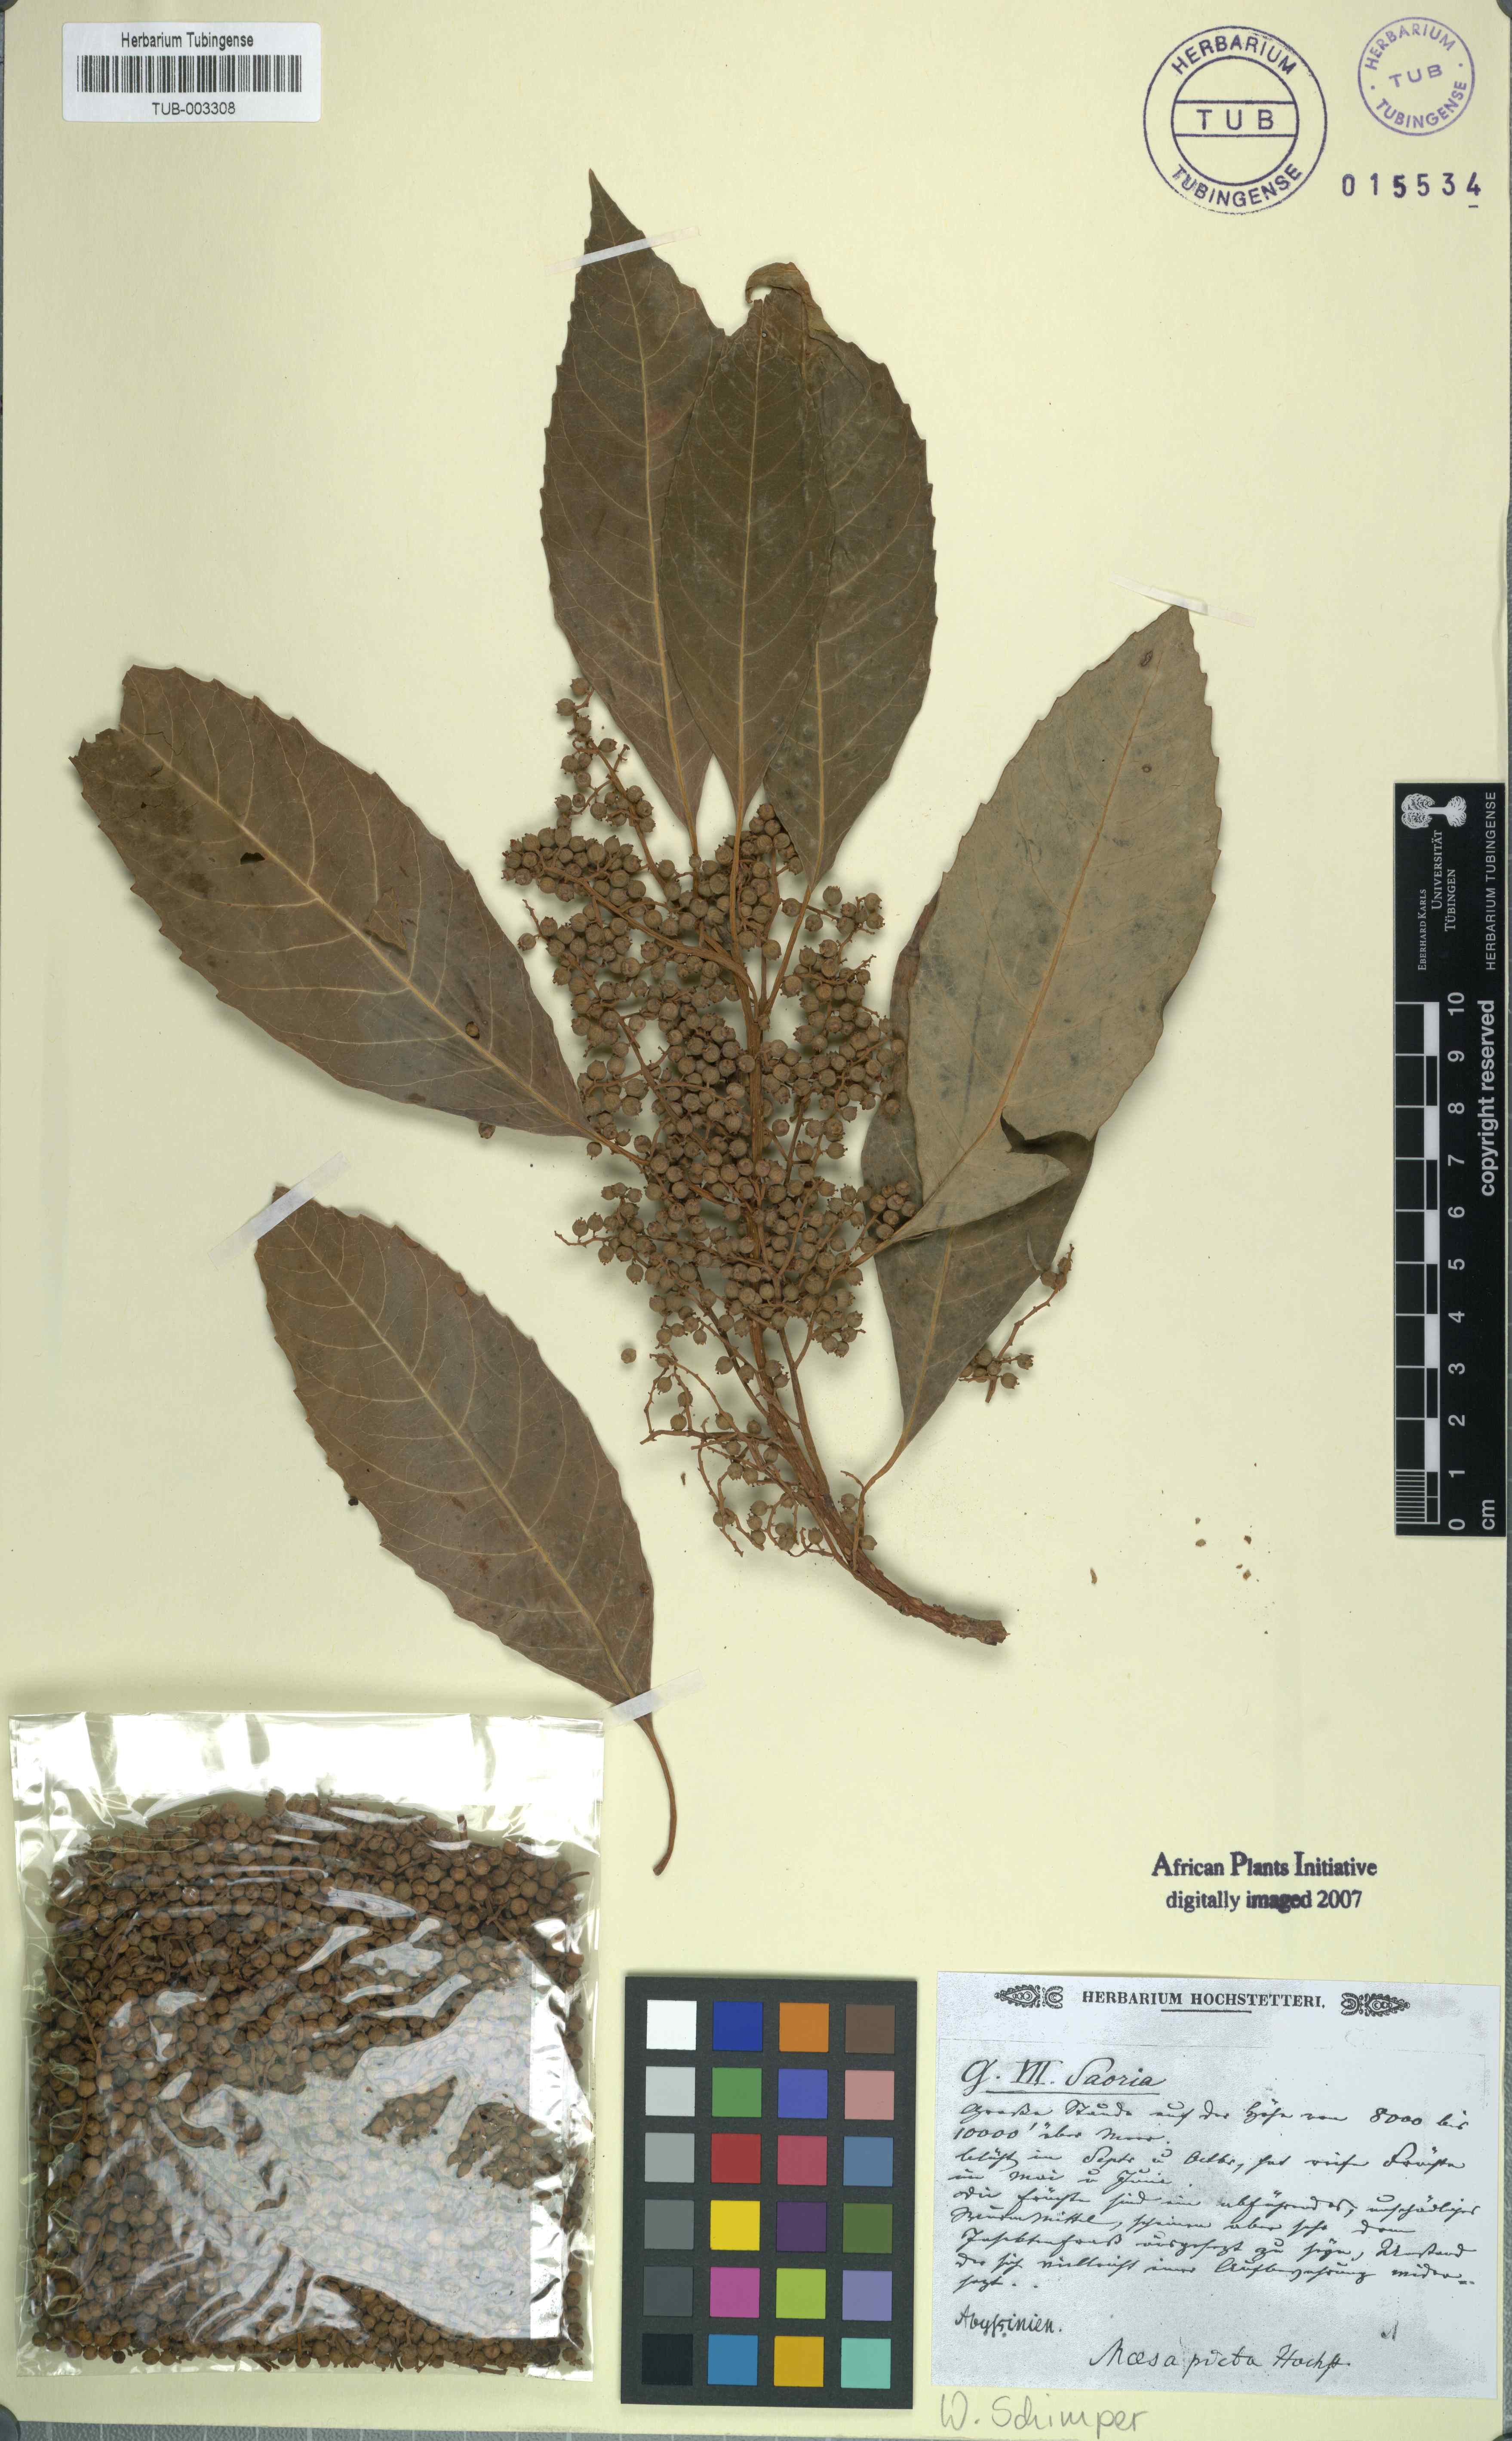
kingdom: Plantae
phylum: Tracheophyta
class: Magnoliopsida
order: Ericales
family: Primulaceae
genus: Maesa
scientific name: Maesa lanceolata
